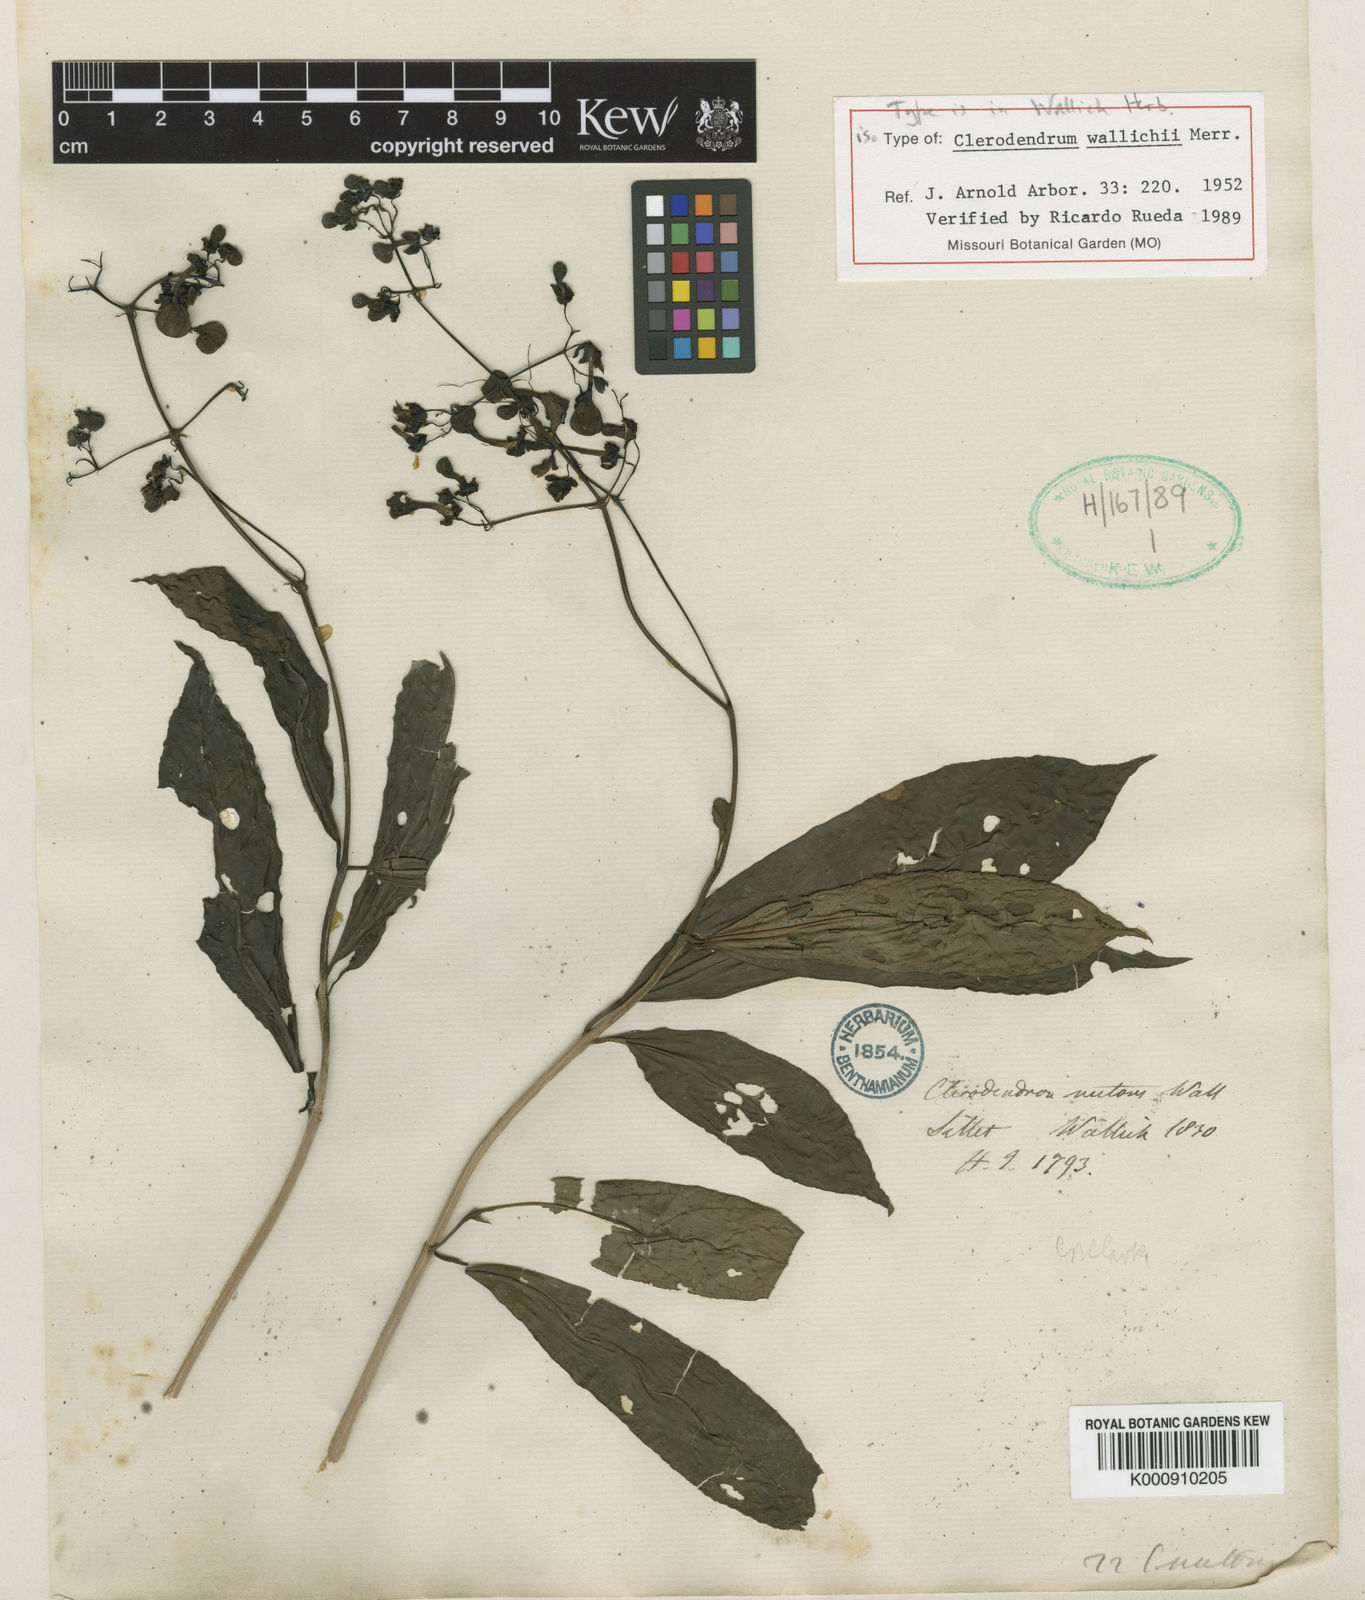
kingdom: Plantae
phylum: Tracheophyta
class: Magnoliopsida
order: Lamiales
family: Lamiaceae
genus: Clerodendrum
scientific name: Clerodendrum
